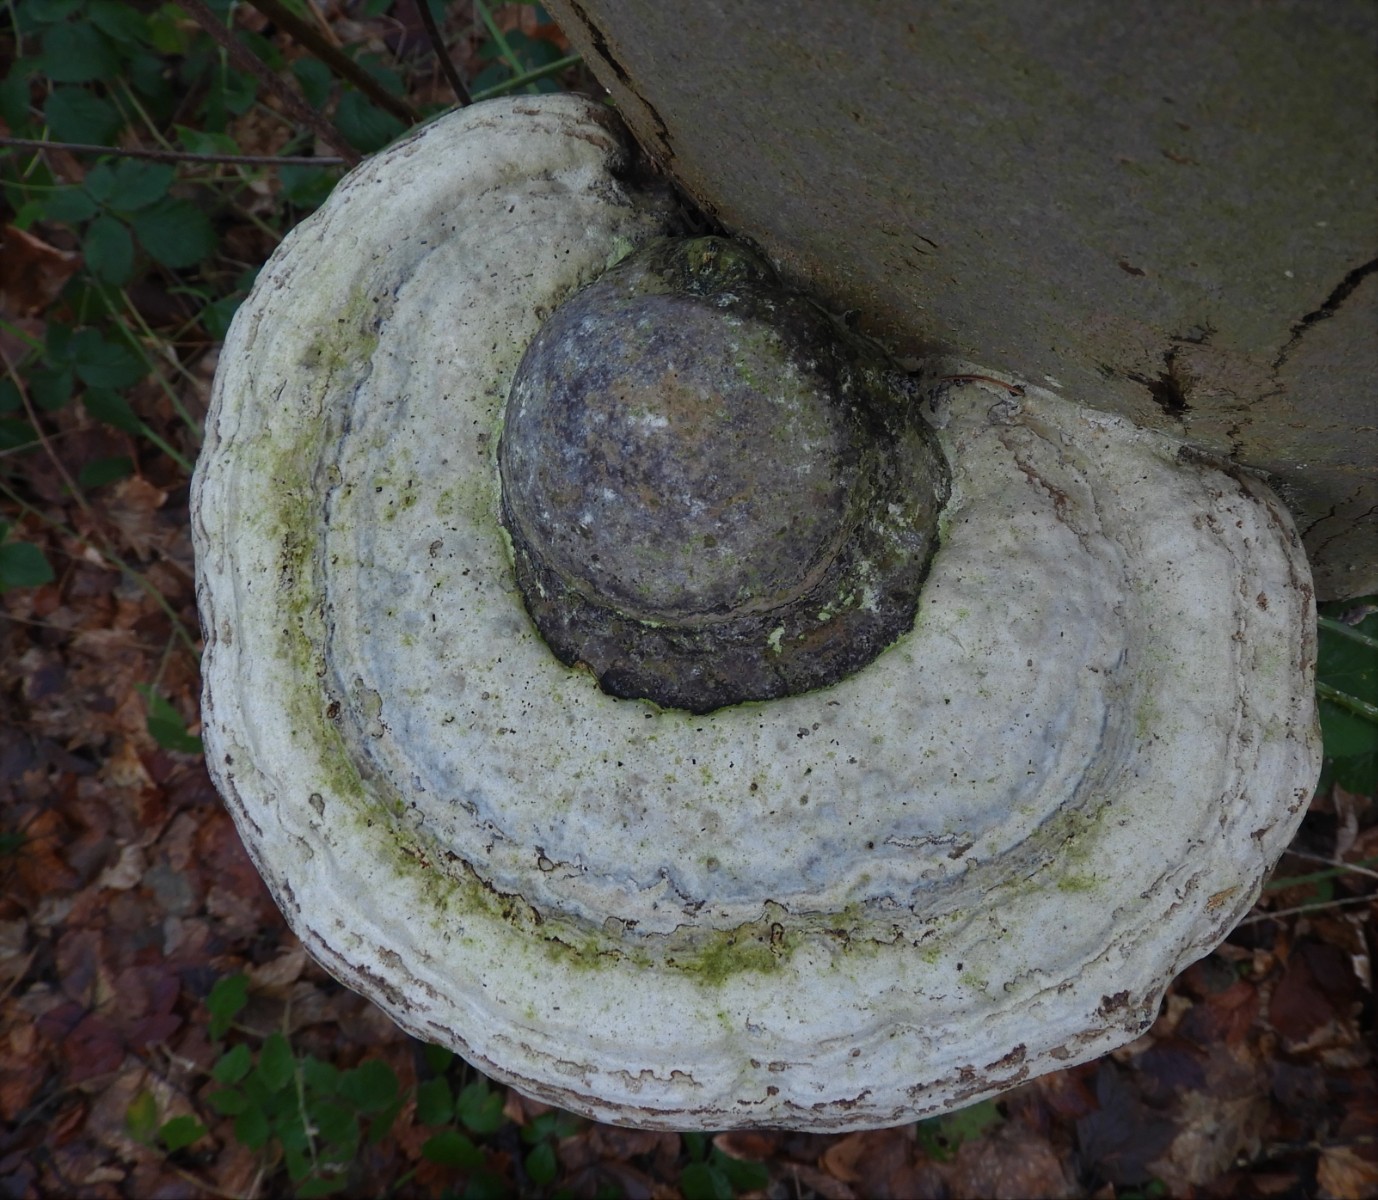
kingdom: Fungi
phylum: Basidiomycota
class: Agaricomycetes
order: Polyporales
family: Polyporaceae
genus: Fomes
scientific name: Fomes fomentarius
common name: tøndersvamp
